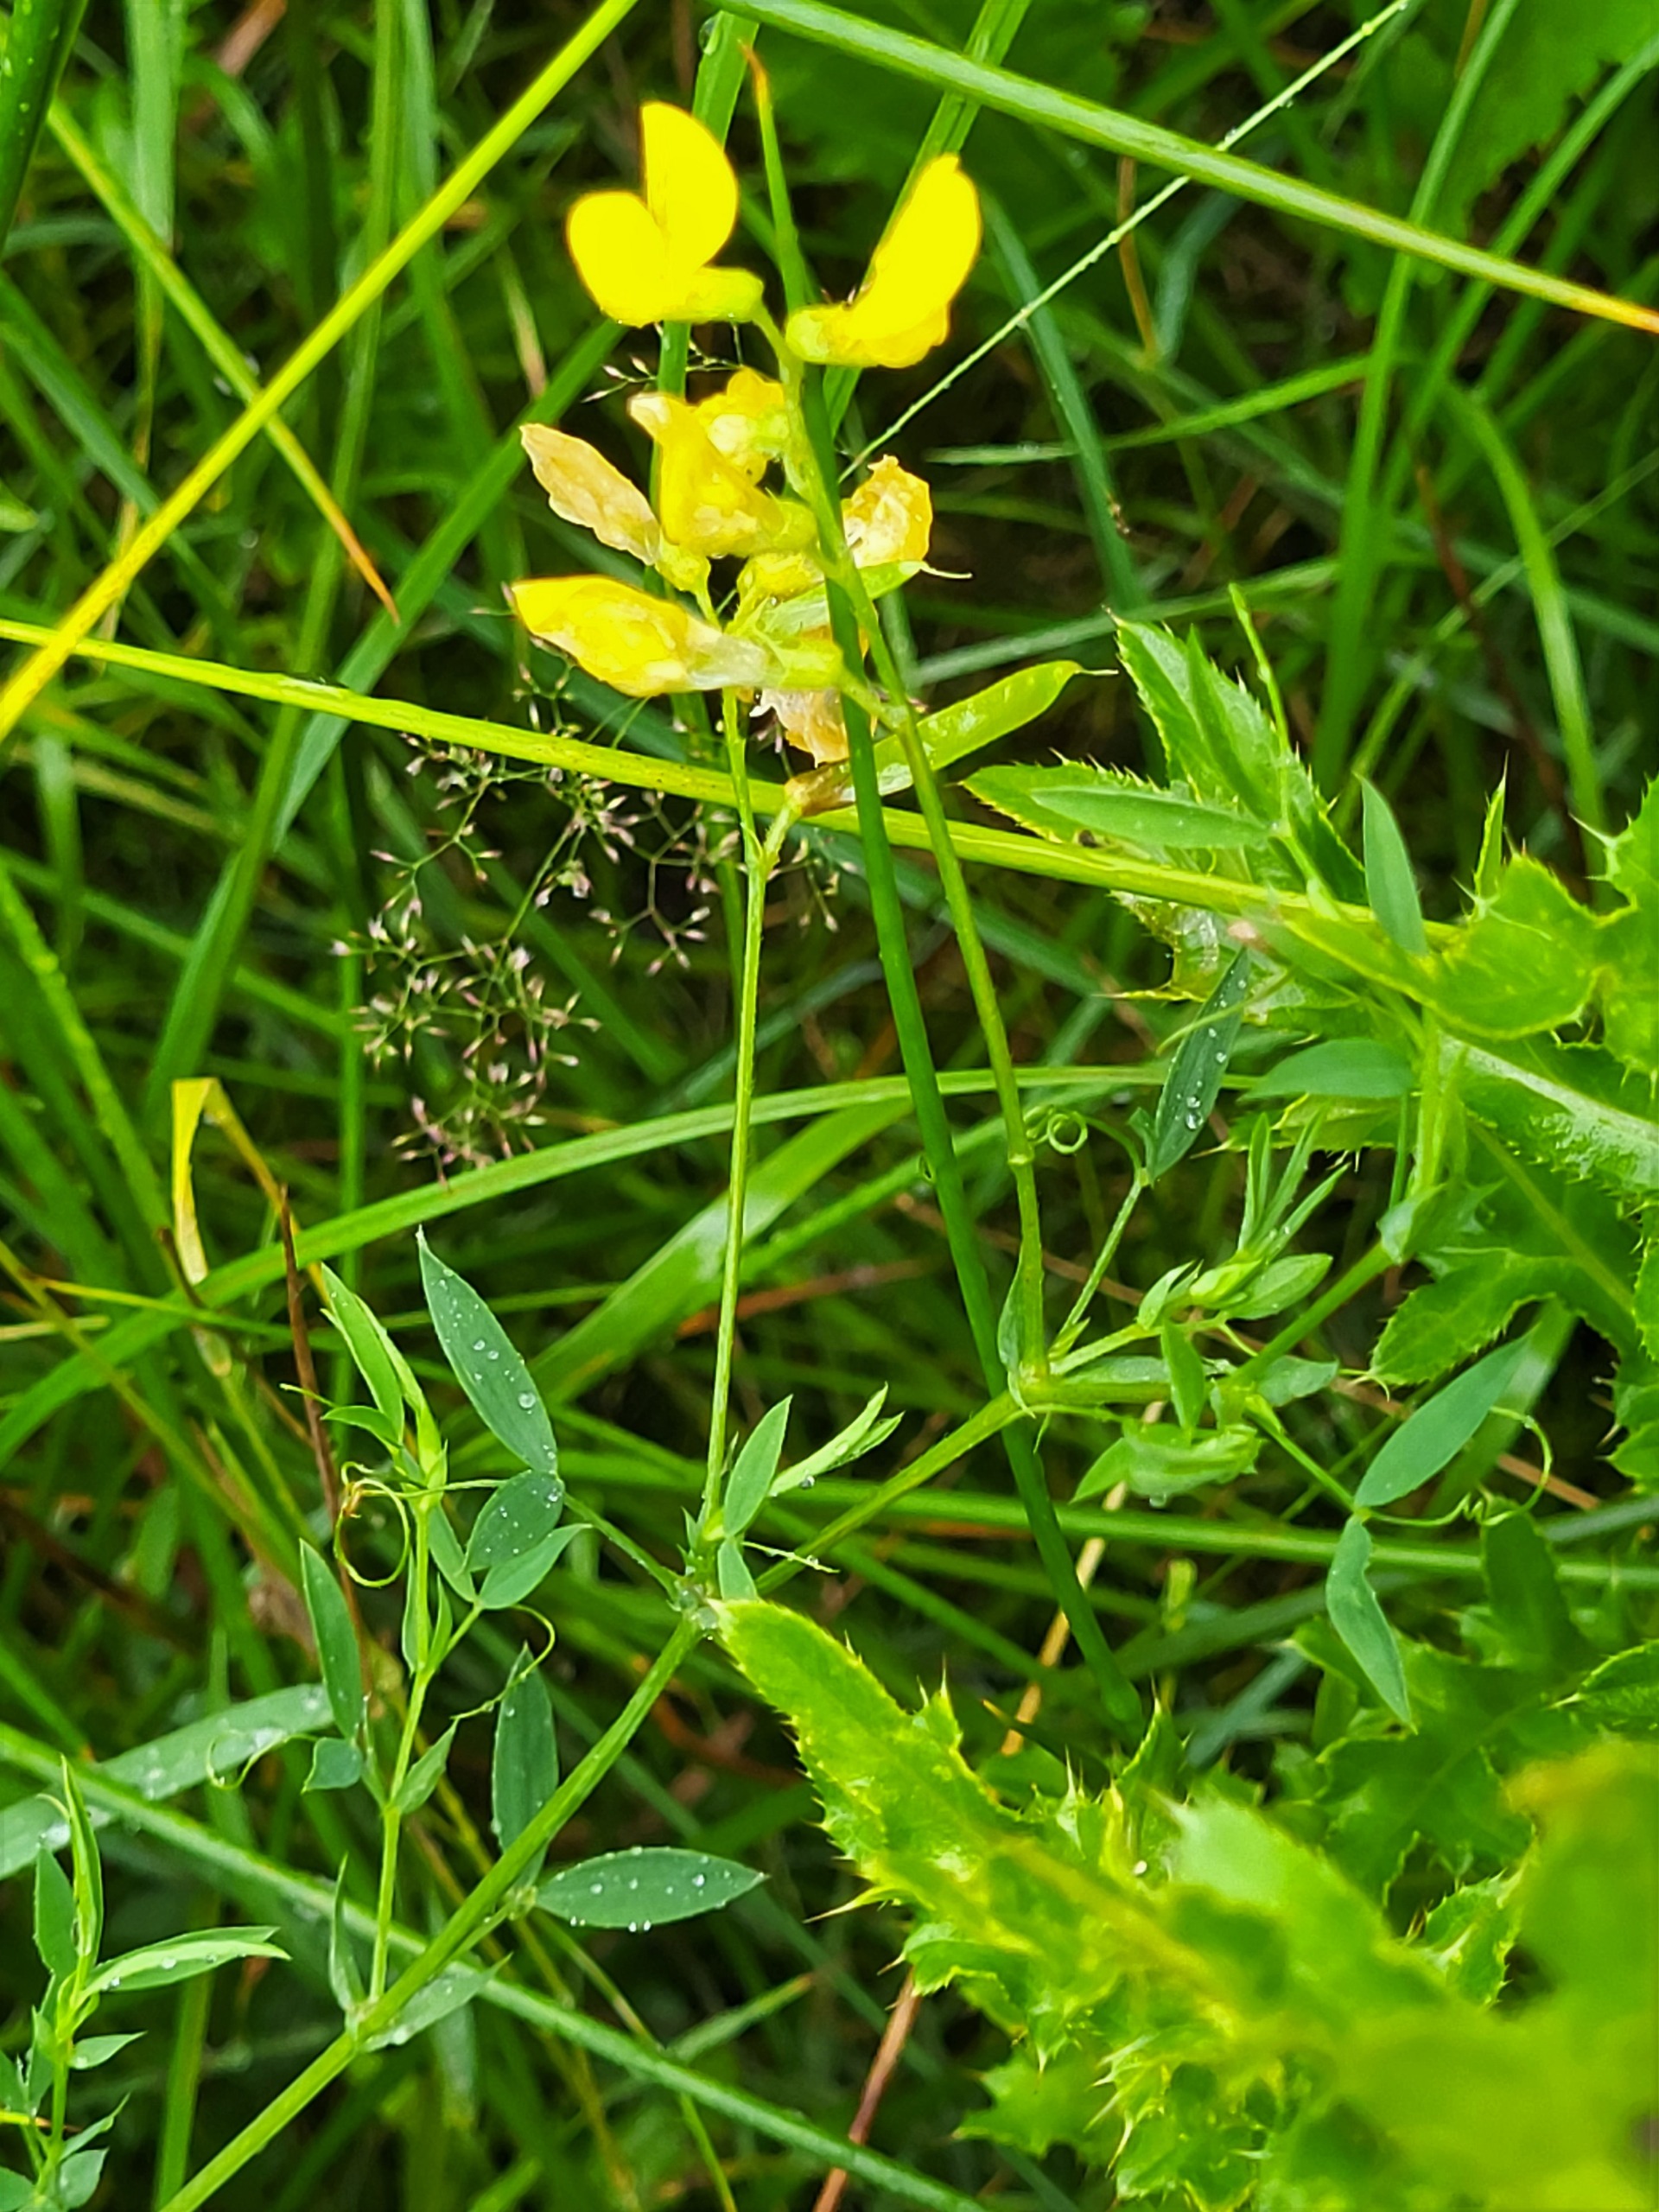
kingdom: Plantae
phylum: Tracheophyta
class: Magnoliopsida
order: Fabales
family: Fabaceae
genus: Lathyrus
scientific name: Lathyrus pratensis
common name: Gul fladbælg
